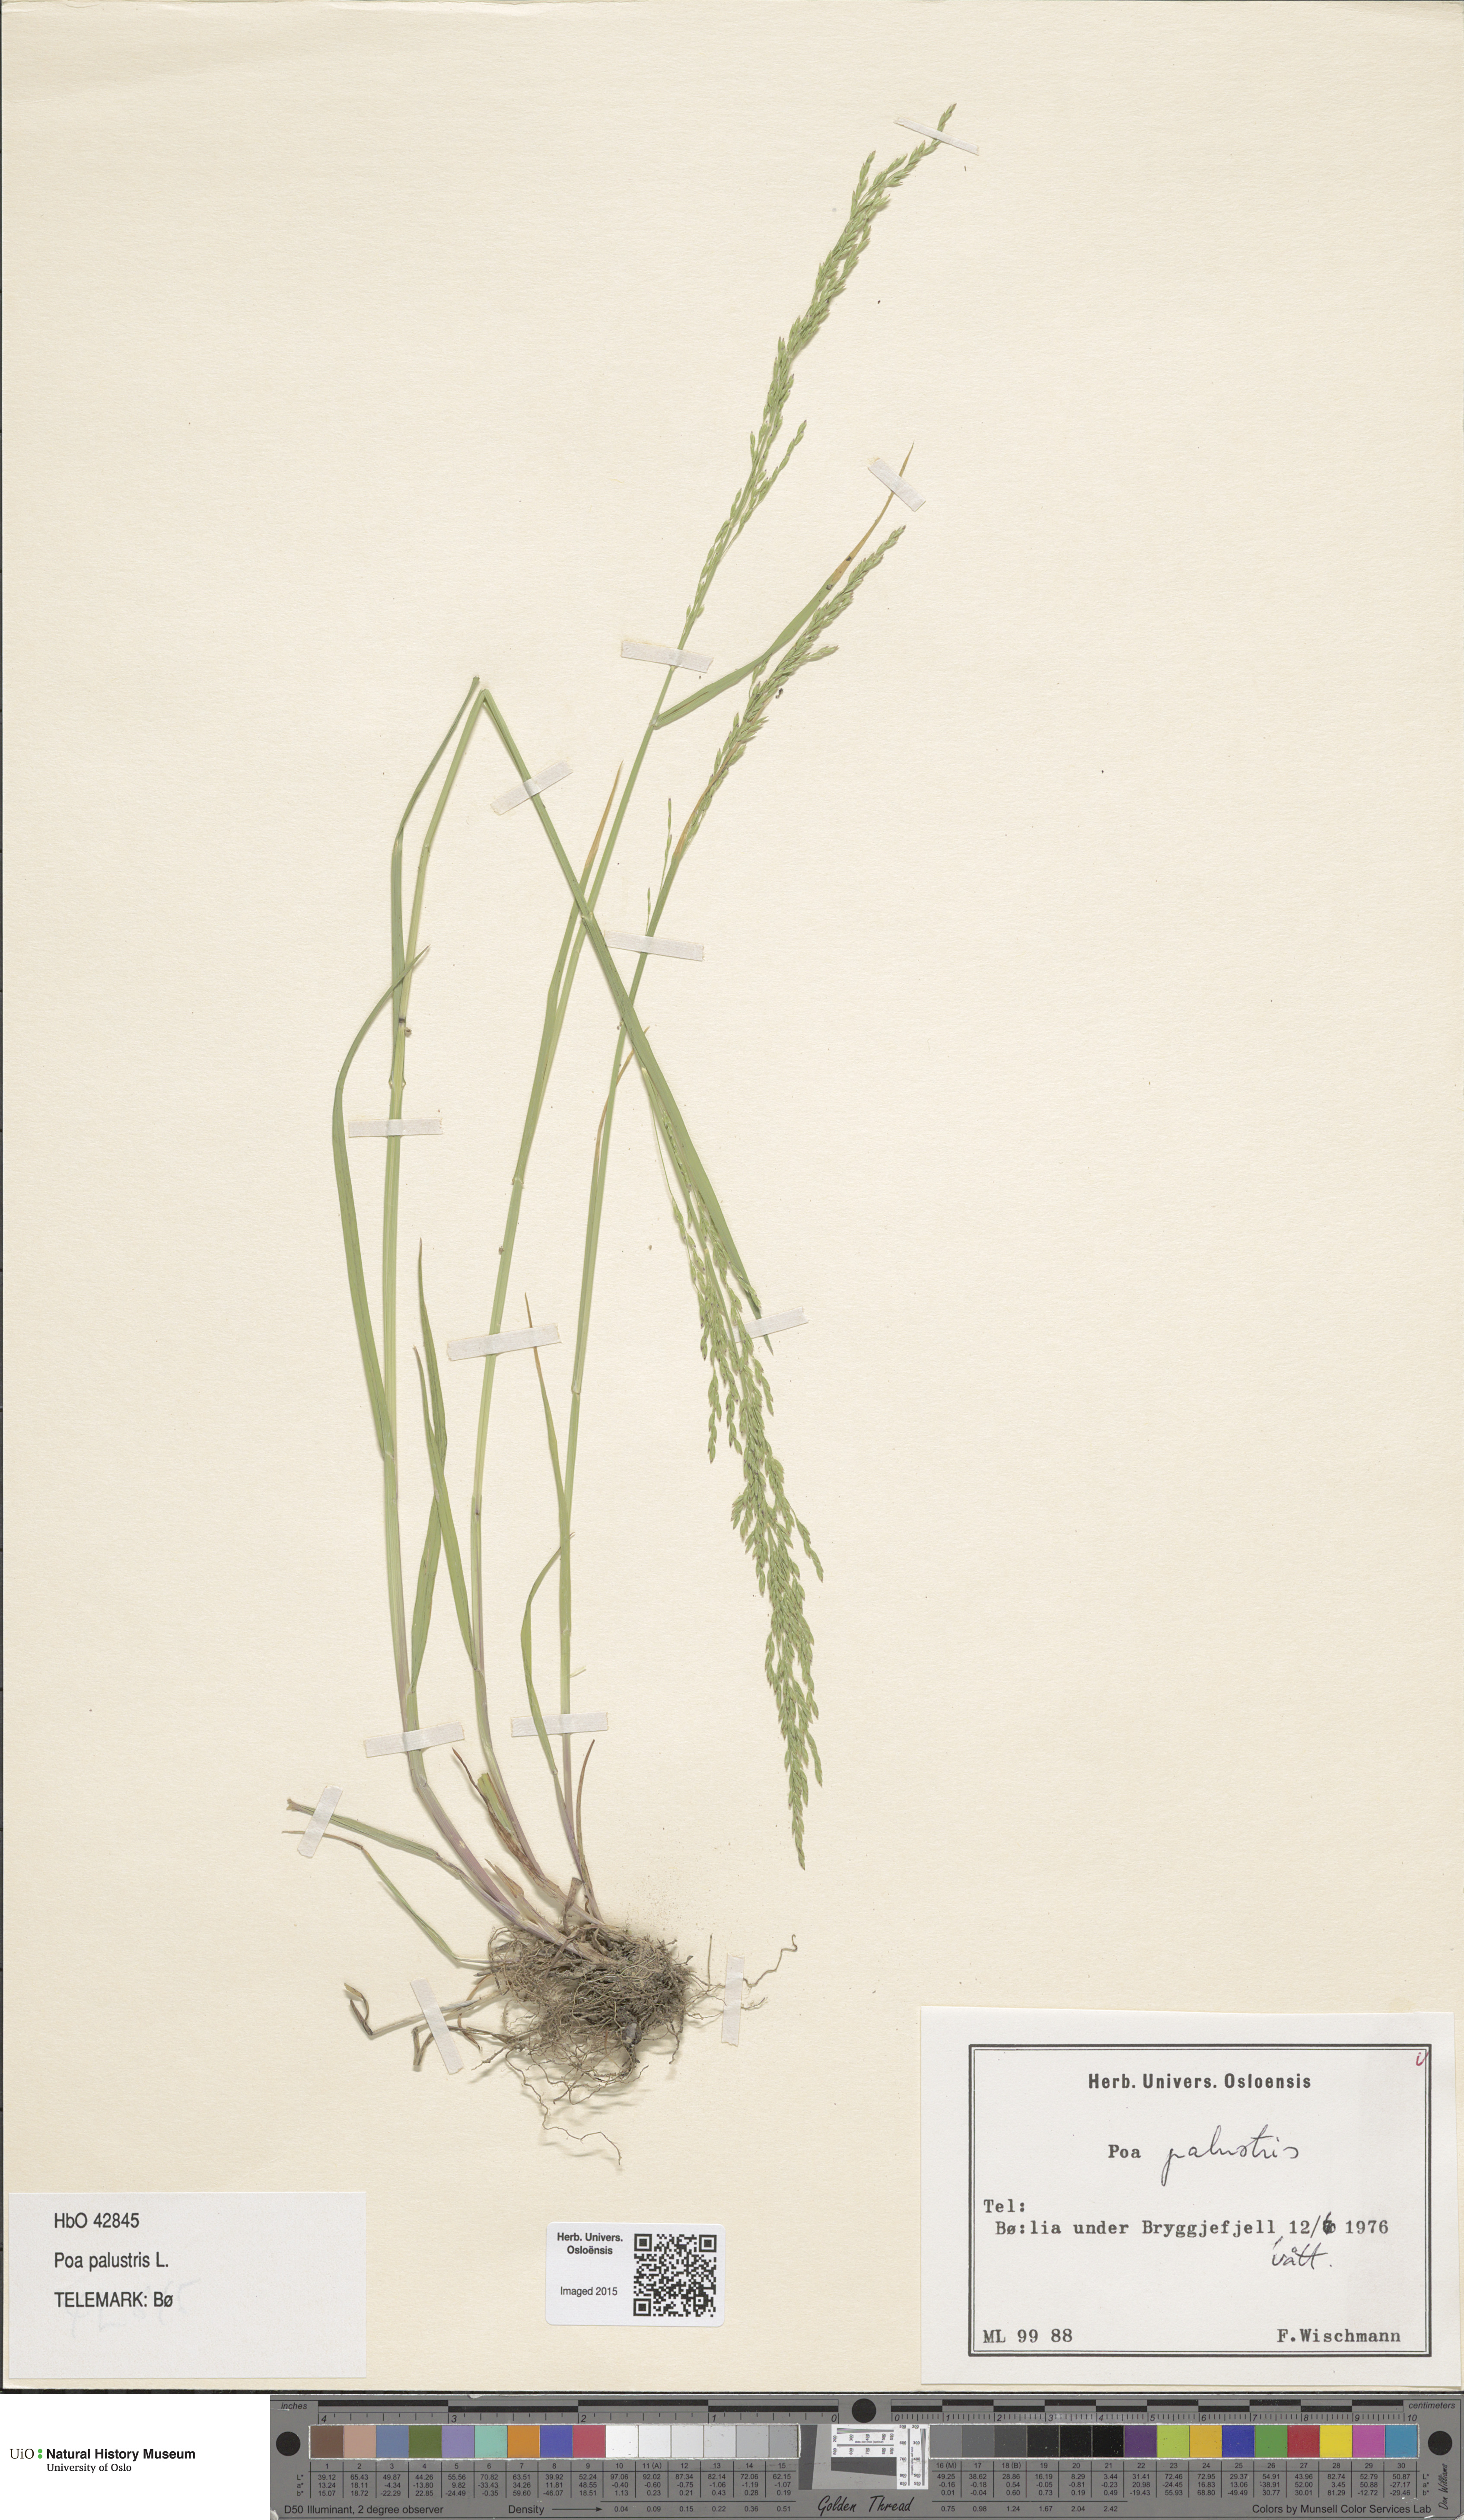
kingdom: Plantae
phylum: Tracheophyta
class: Liliopsida
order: Poales
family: Poaceae
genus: Poa
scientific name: Poa palustris
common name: Swamp meadow-grass
